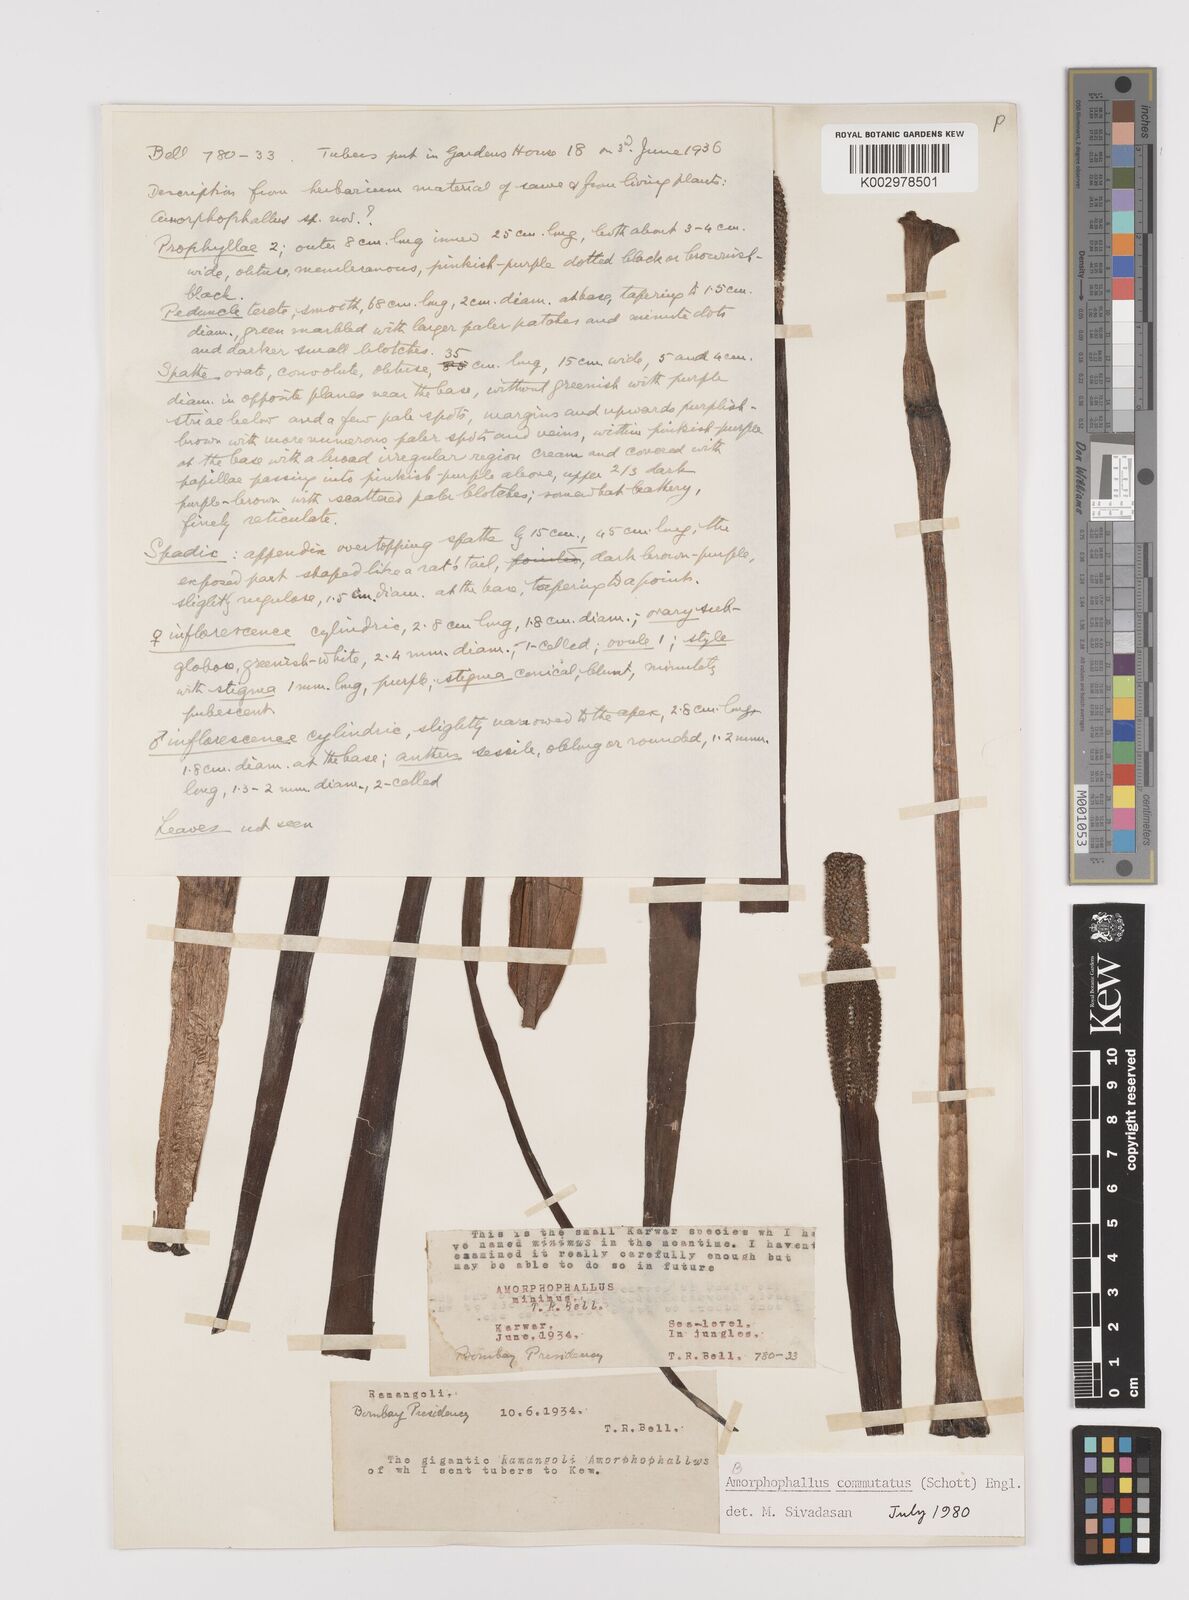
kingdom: Plantae
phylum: Tracheophyta
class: Liliopsida
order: Alismatales
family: Araceae
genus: Amorphophallus
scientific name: Amorphophallus commutatus
